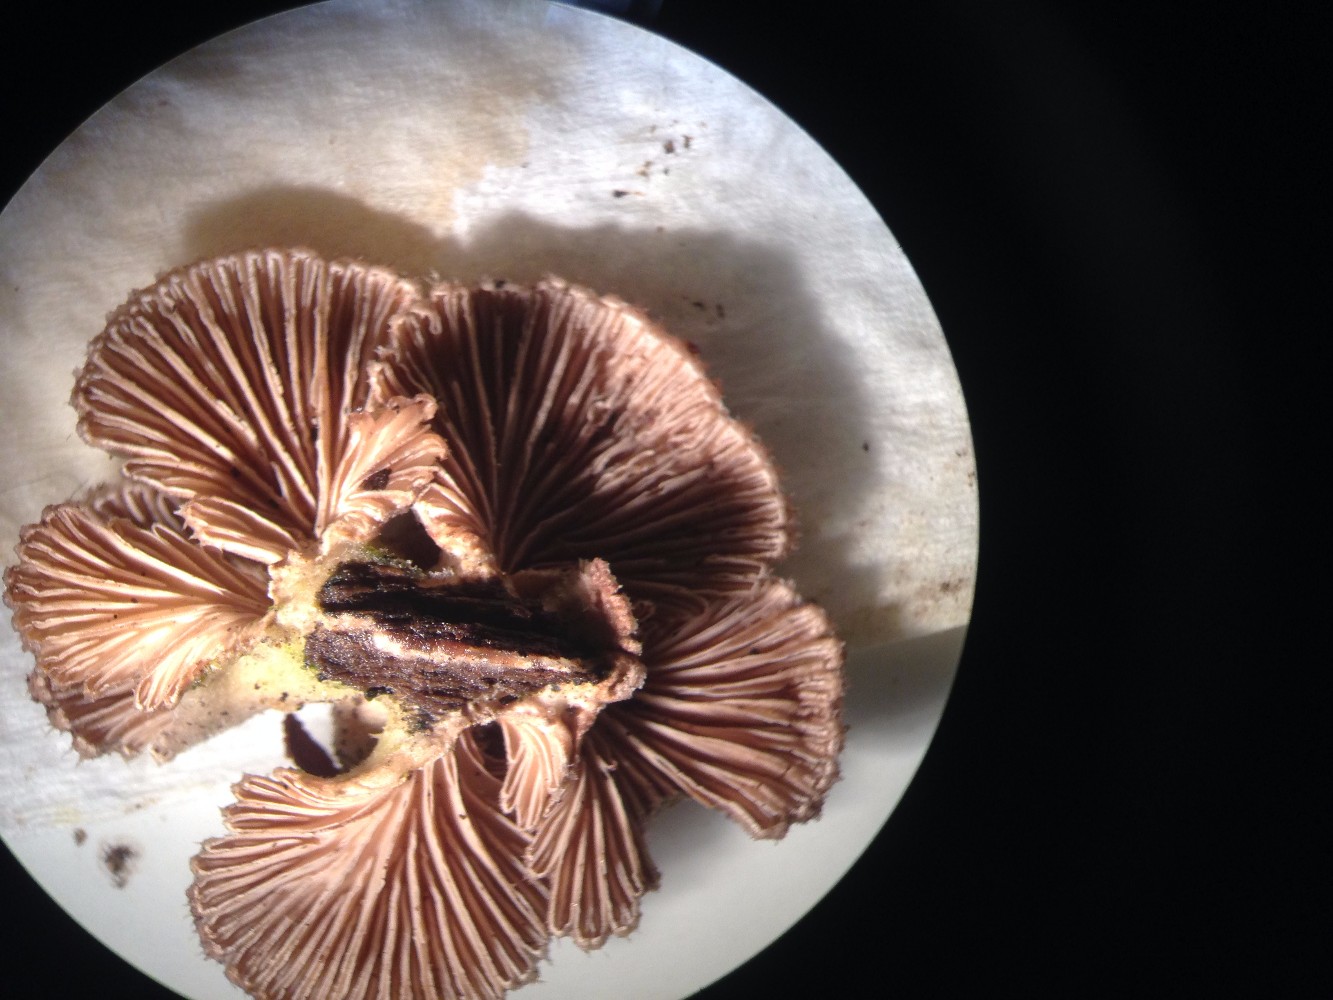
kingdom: Fungi
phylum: Basidiomycota
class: Agaricomycetes
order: Agaricales
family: Schizophyllaceae
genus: Schizophyllum
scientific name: Schizophyllum commune
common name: kløvblad
